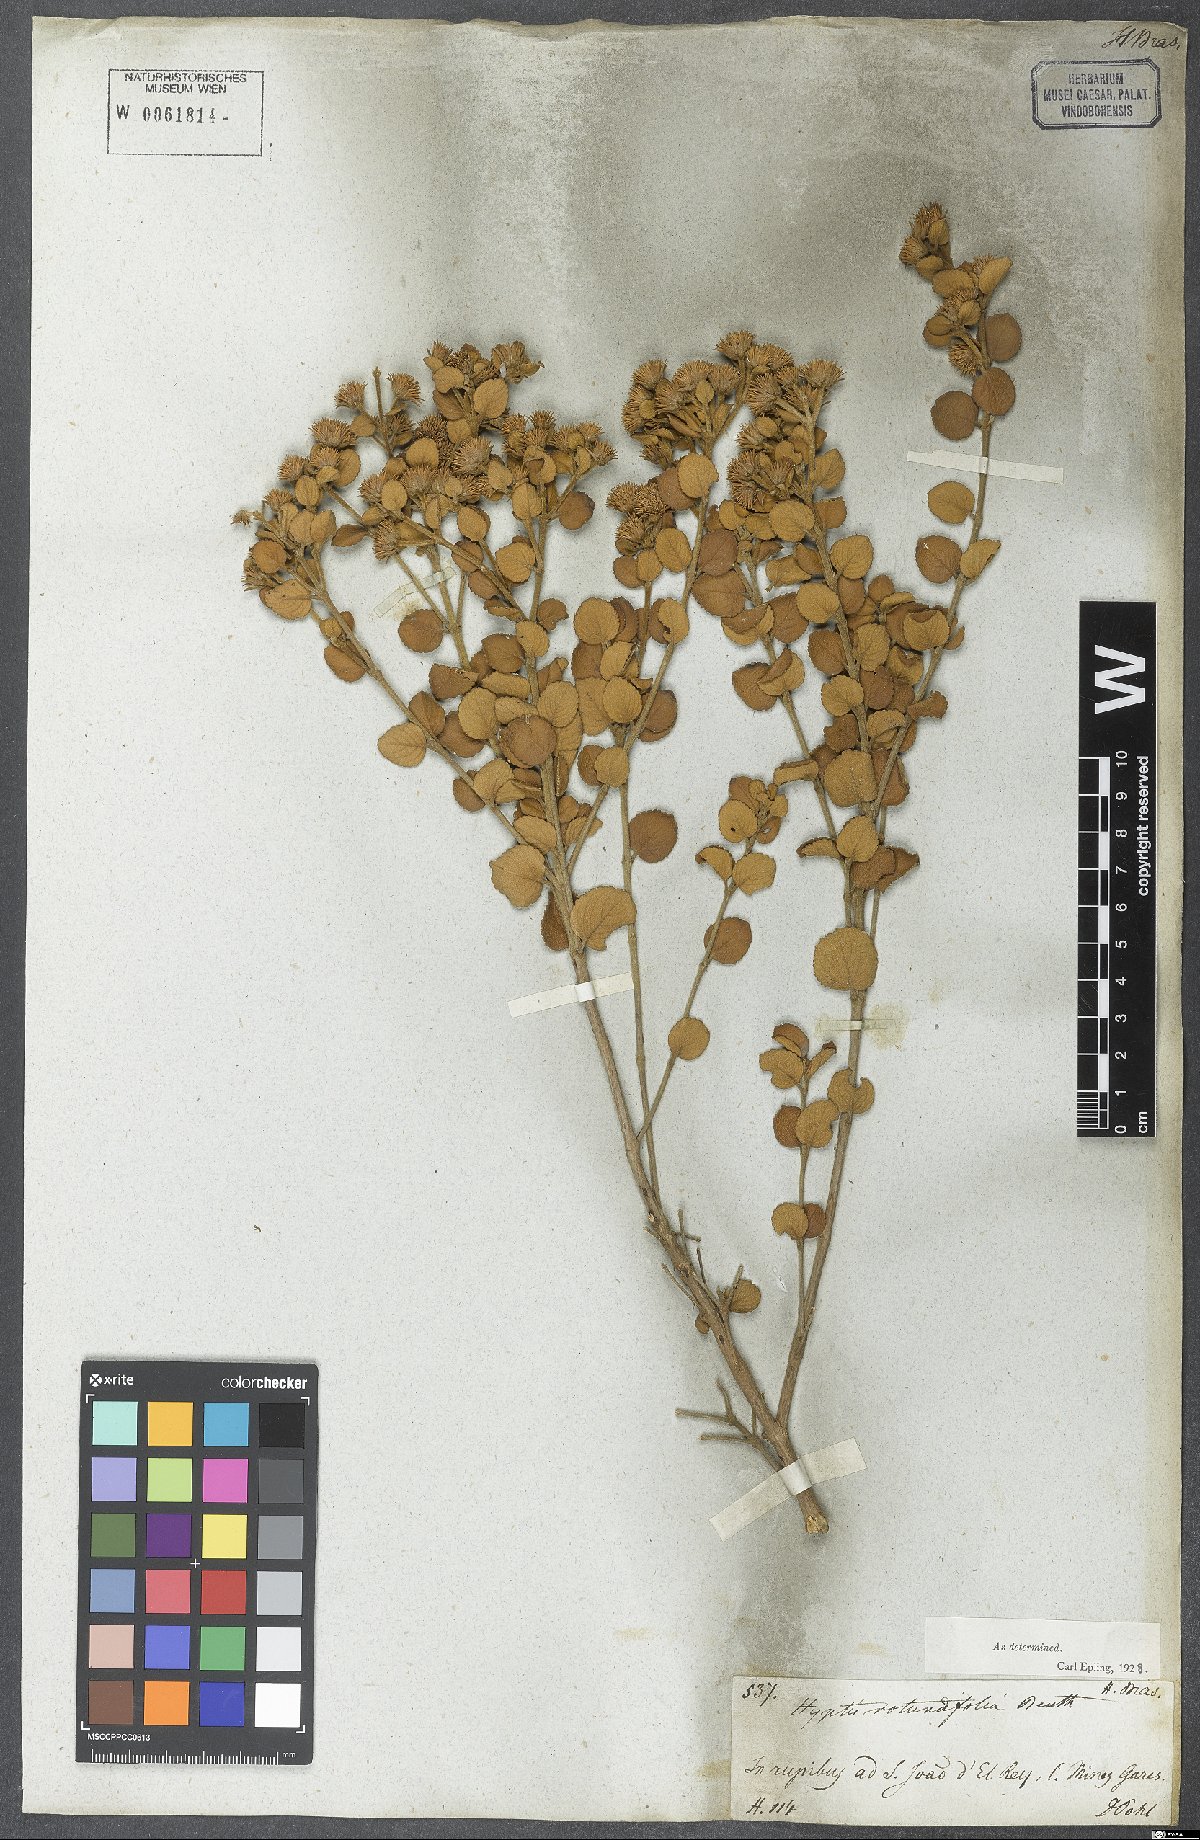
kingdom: Plantae
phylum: Tracheophyta
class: Magnoliopsida
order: Lamiales
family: Lamiaceae
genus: Hyptis
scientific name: Hyptis rotundifolia
